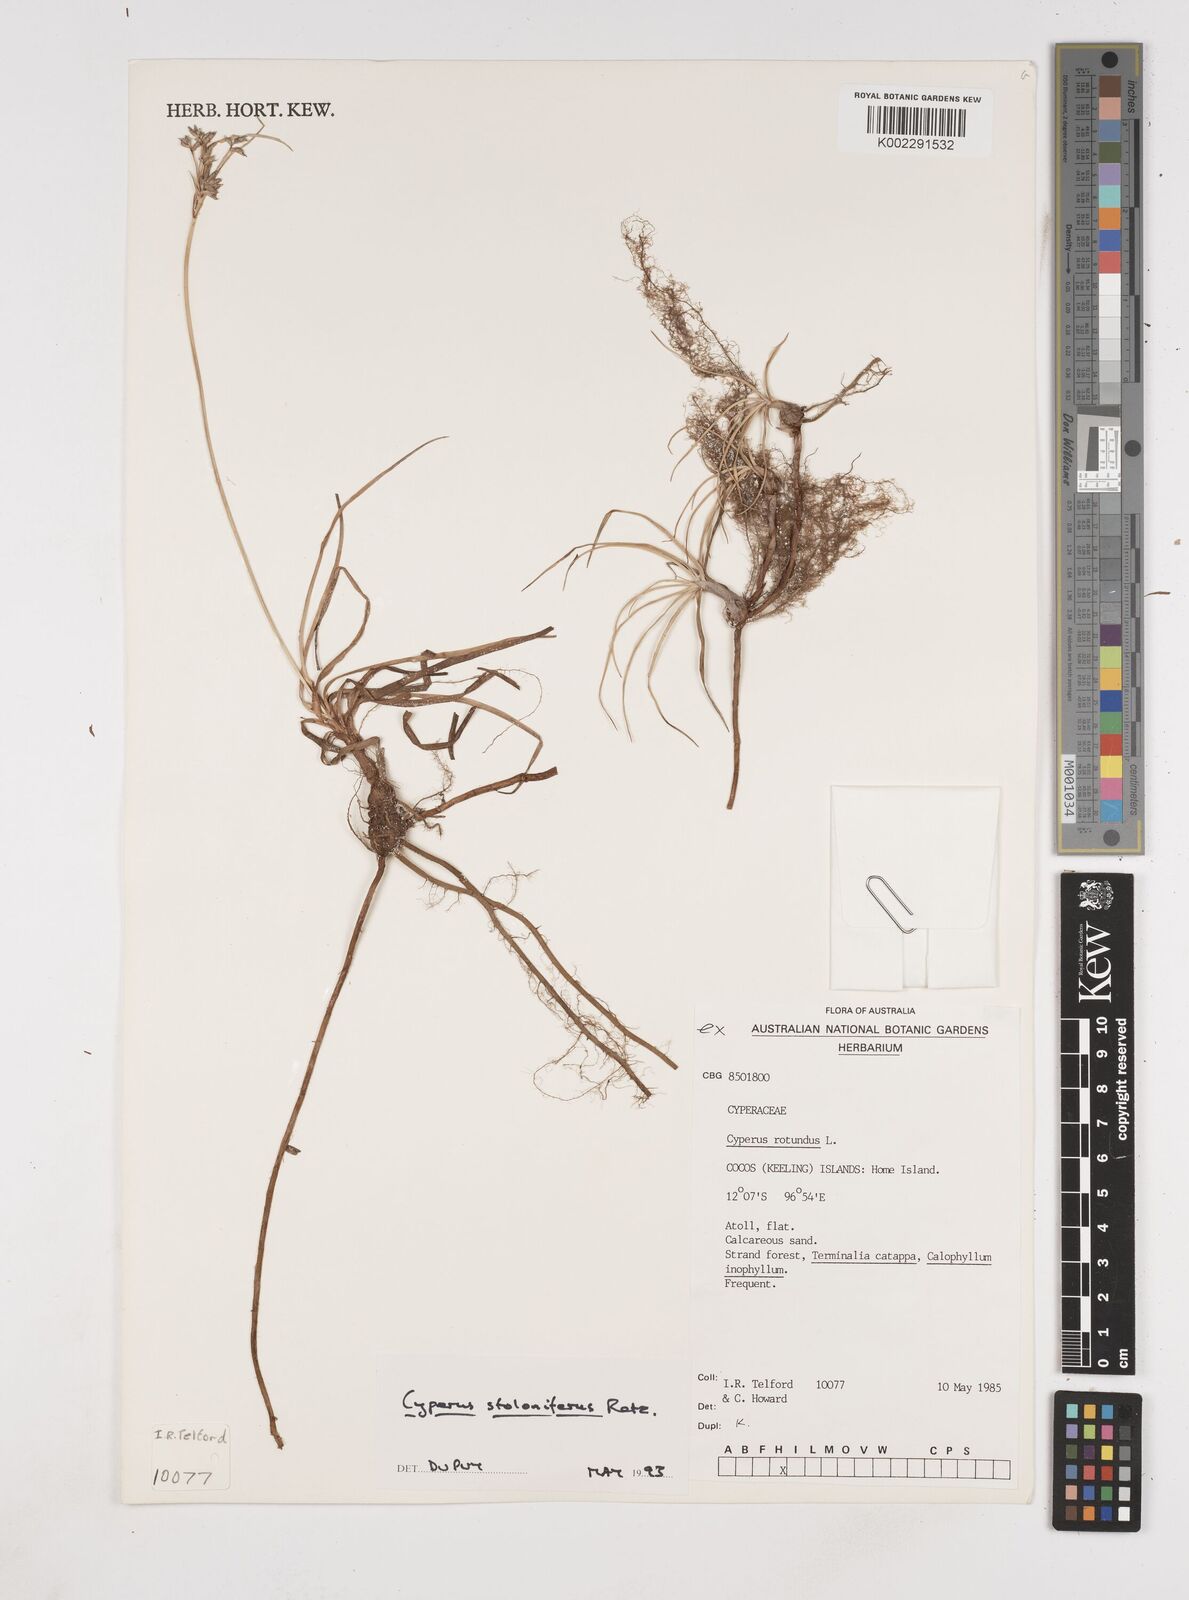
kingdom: Plantae
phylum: Tracheophyta
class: Liliopsida
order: Poales
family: Cyperaceae
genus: Cyperus
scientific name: Cyperus bulbosus
